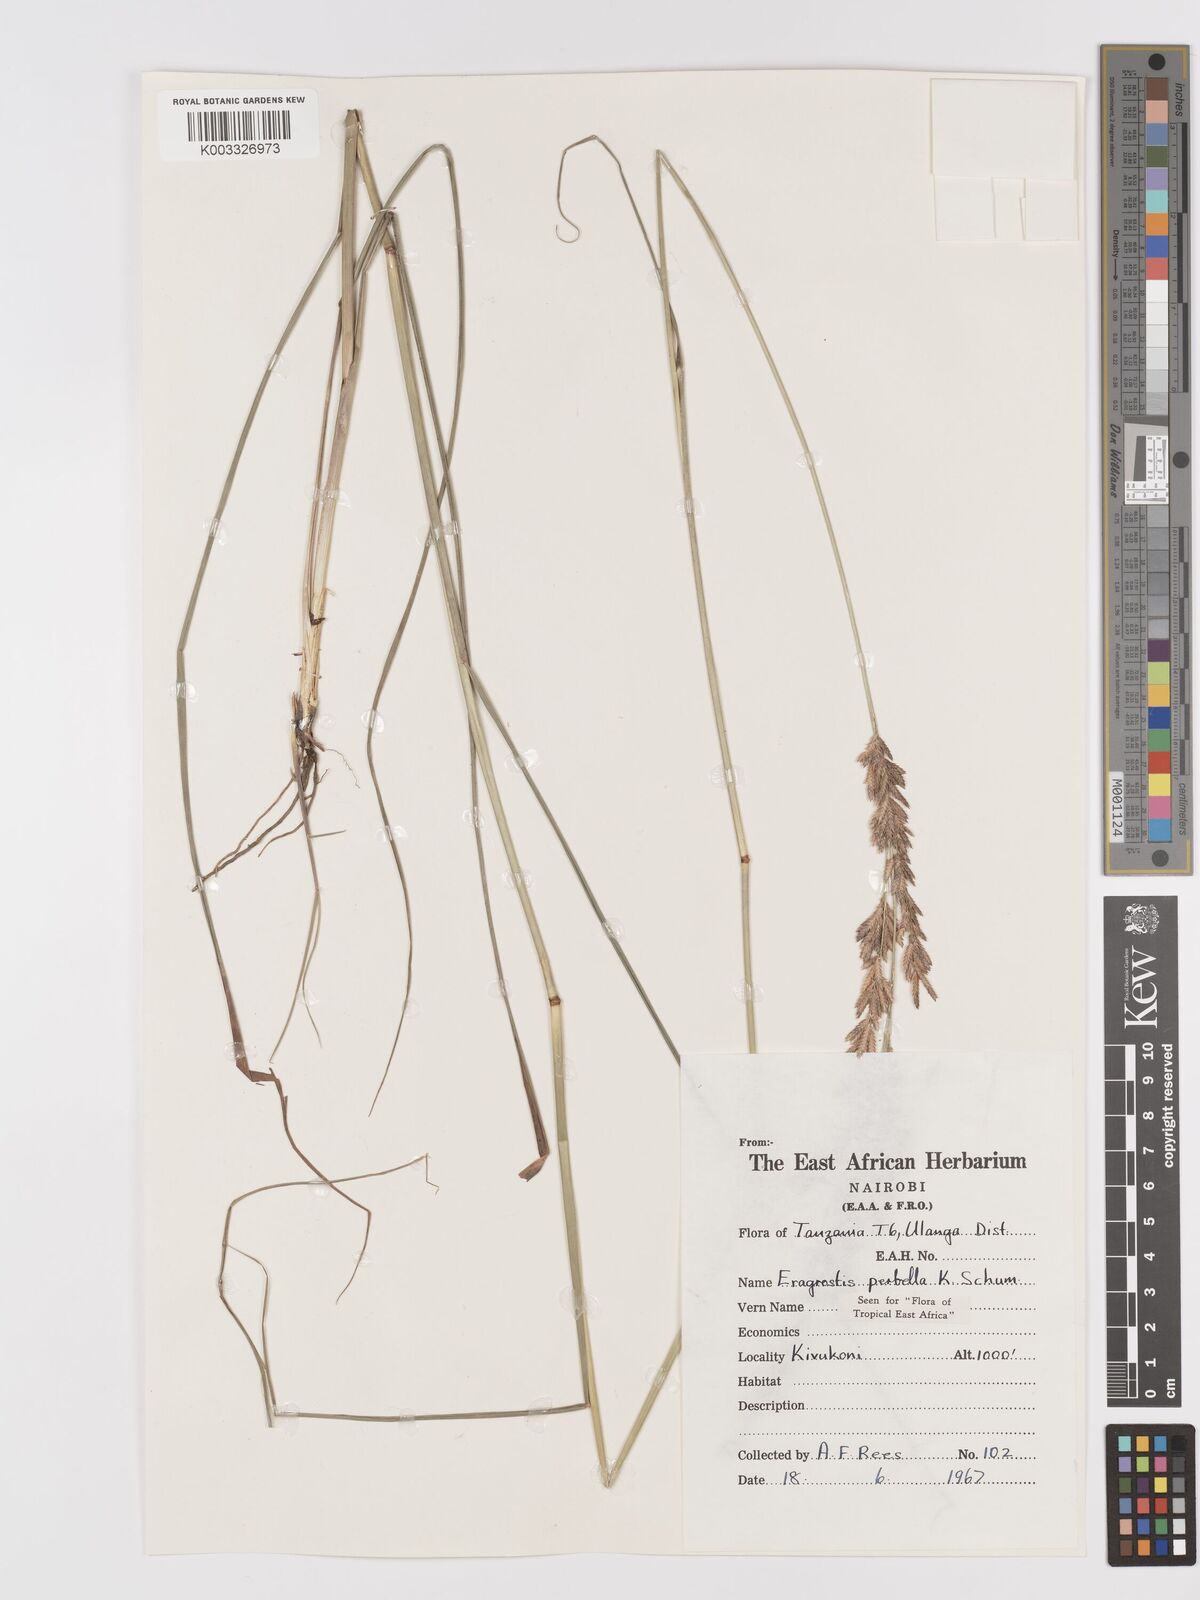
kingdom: Plantae
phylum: Tracheophyta
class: Liliopsida
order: Poales
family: Poaceae
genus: Eragrostis
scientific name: Eragrostis perbella
